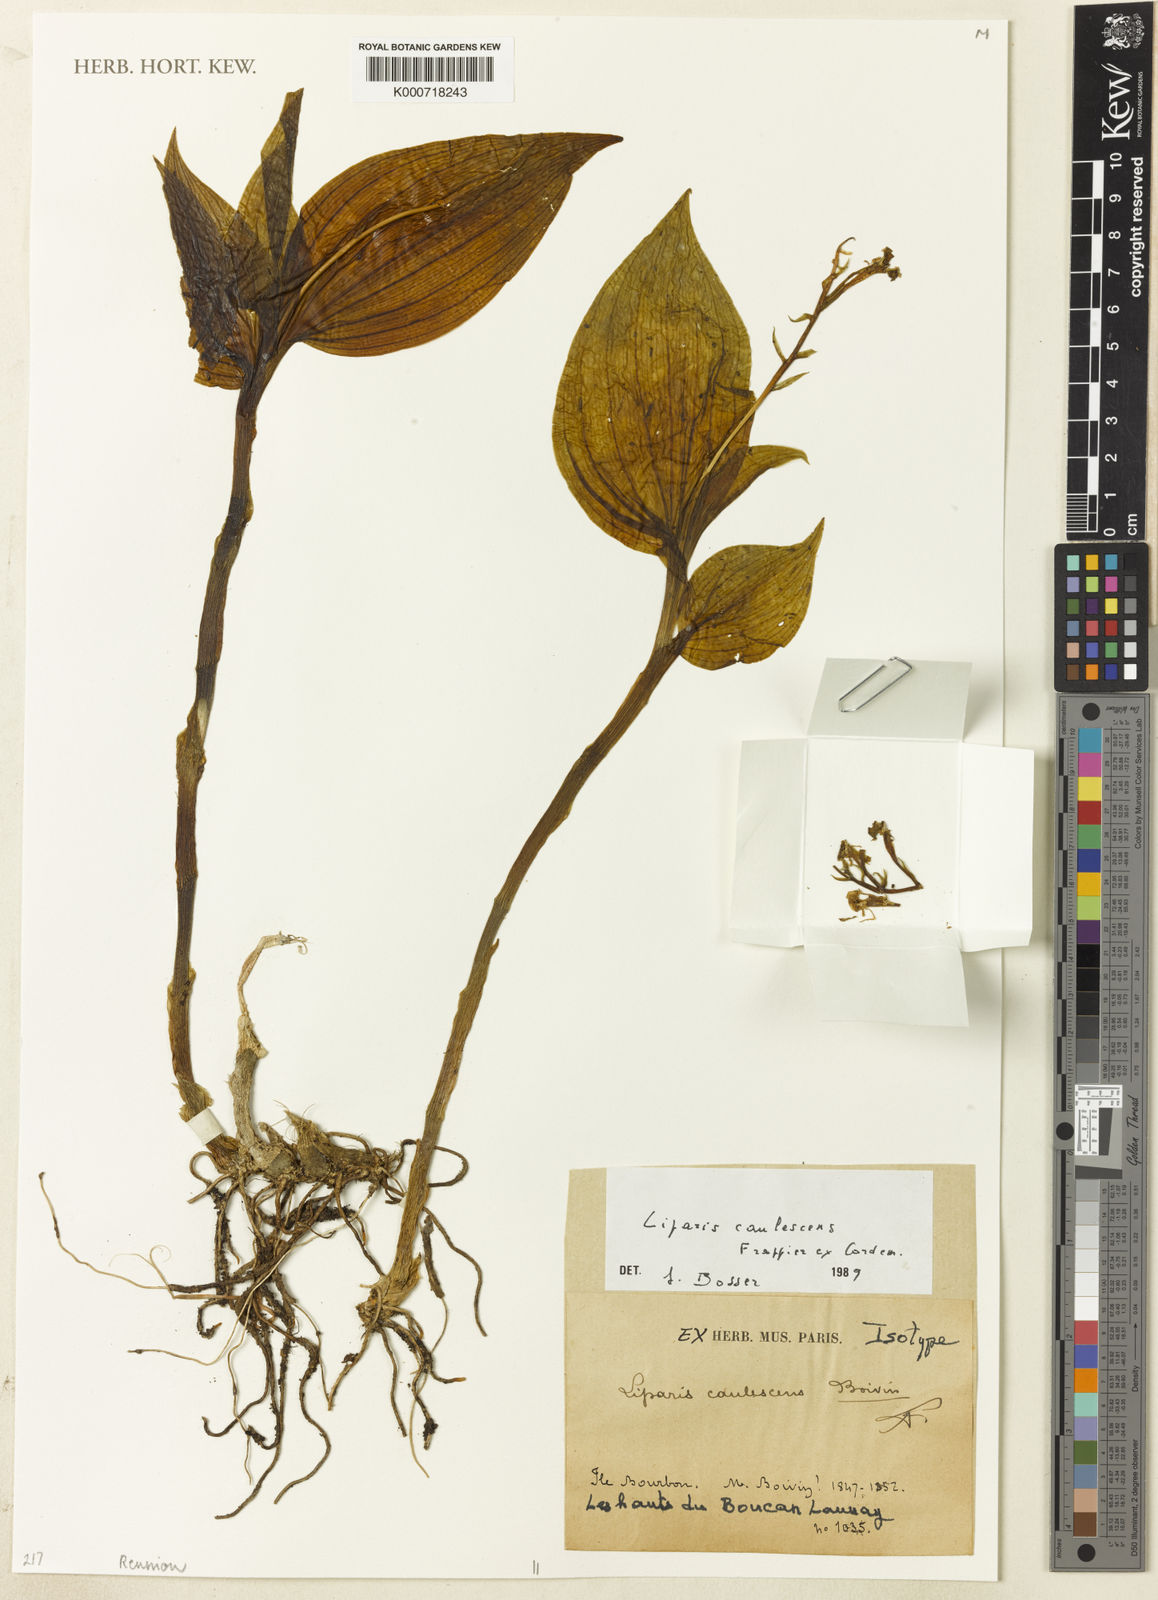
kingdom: Plantae
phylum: Tracheophyta
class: Liliopsida
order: Asparagales
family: Orchidaceae
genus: Liparis
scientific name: Liparis caulescens
